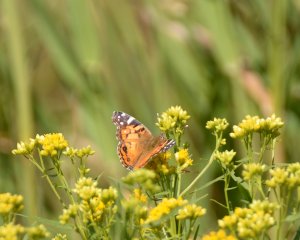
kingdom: Animalia
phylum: Arthropoda
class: Insecta
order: Lepidoptera
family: Nymphalidae
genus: Vanessa
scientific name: Vanessa virginiensis
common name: American Lady
